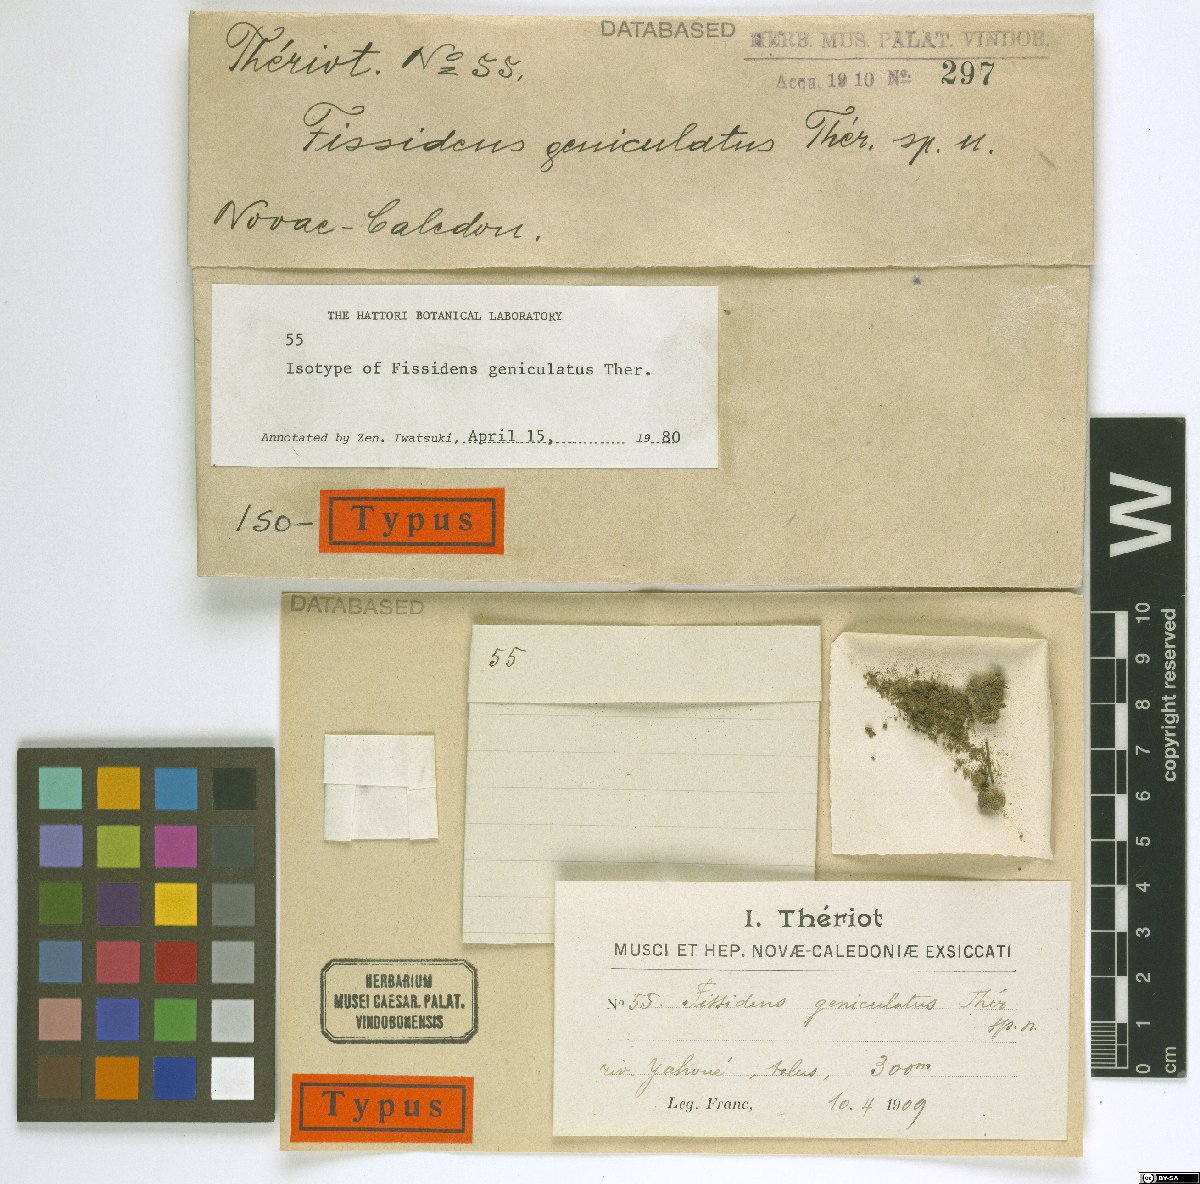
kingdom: Plantae
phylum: Bryophyta
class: Bryopsida
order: Dicranales
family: Fissidentaceae
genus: Fissidens
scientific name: Fissidens pallidinervis
